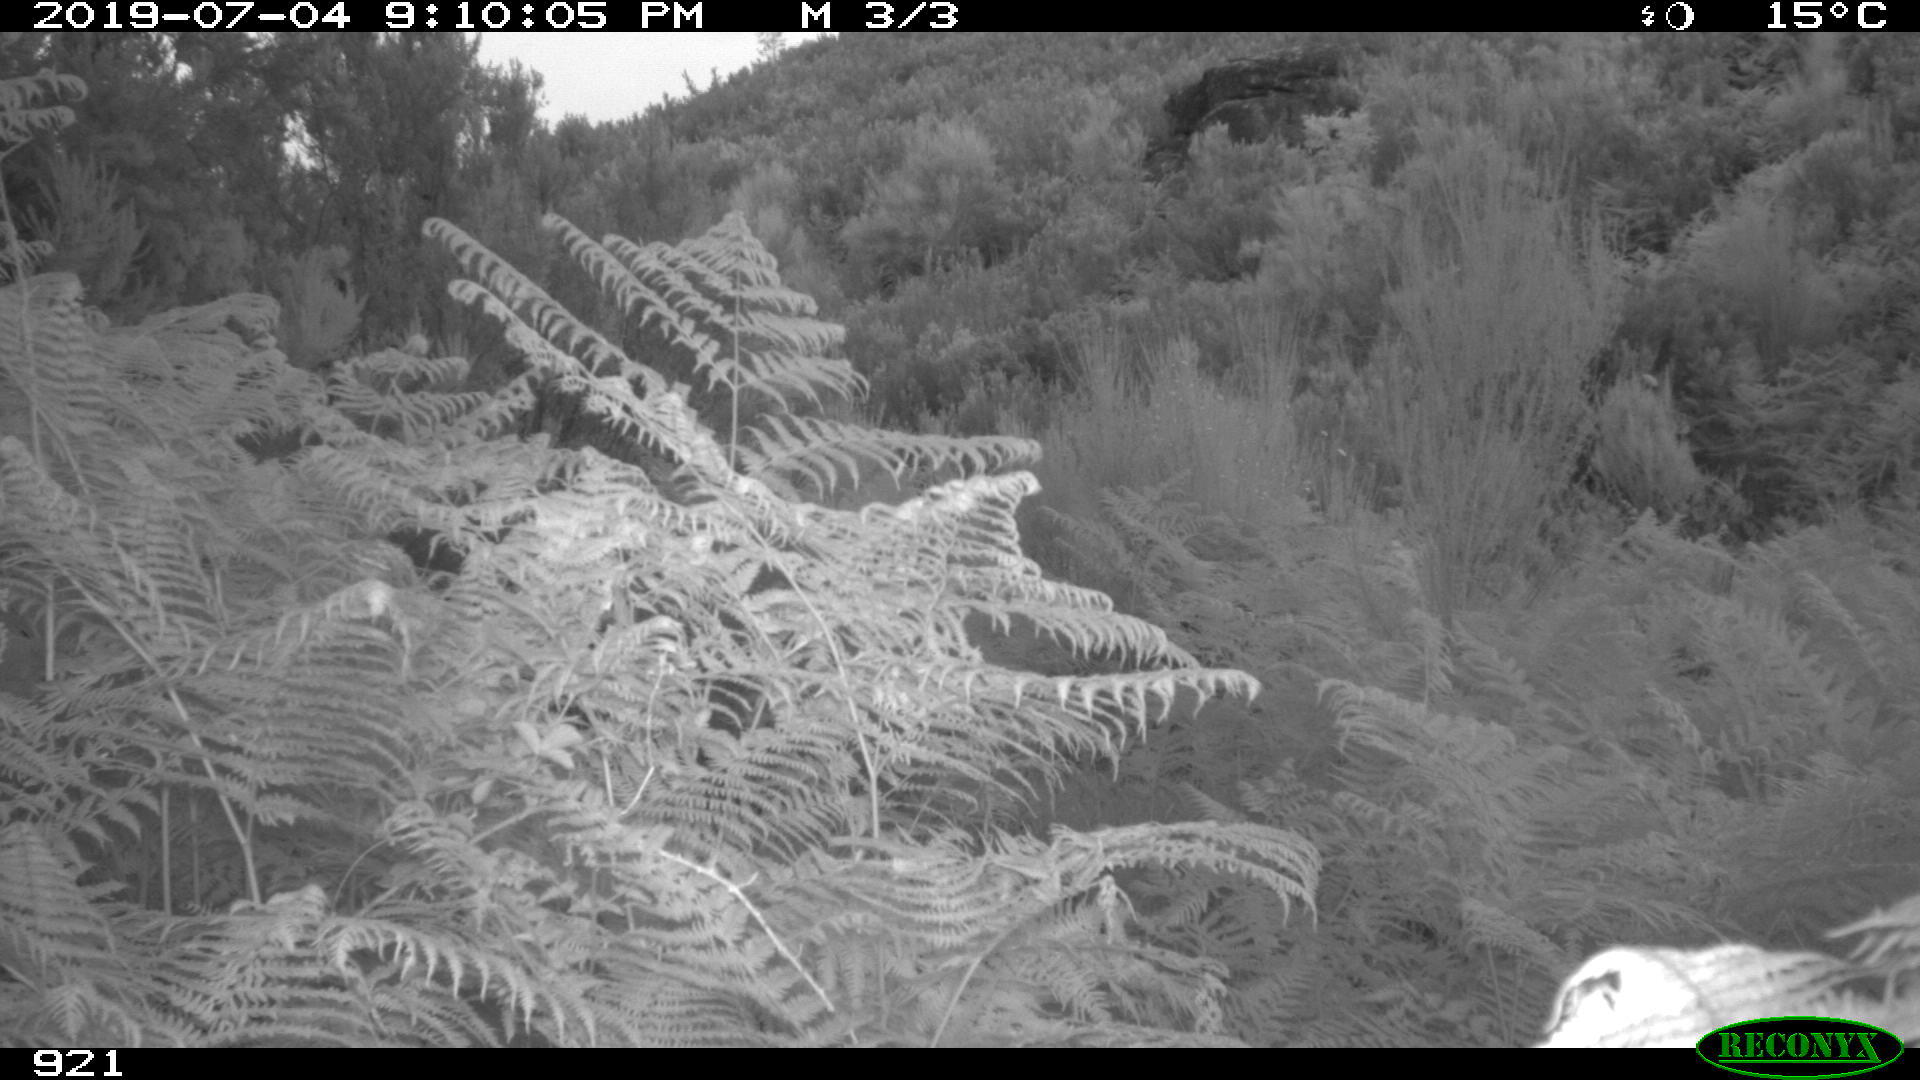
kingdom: Animalia
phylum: Chordata
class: Mammalia
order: Perissodactyla
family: Equidae
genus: Equus
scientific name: Equus caballus
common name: Horse
